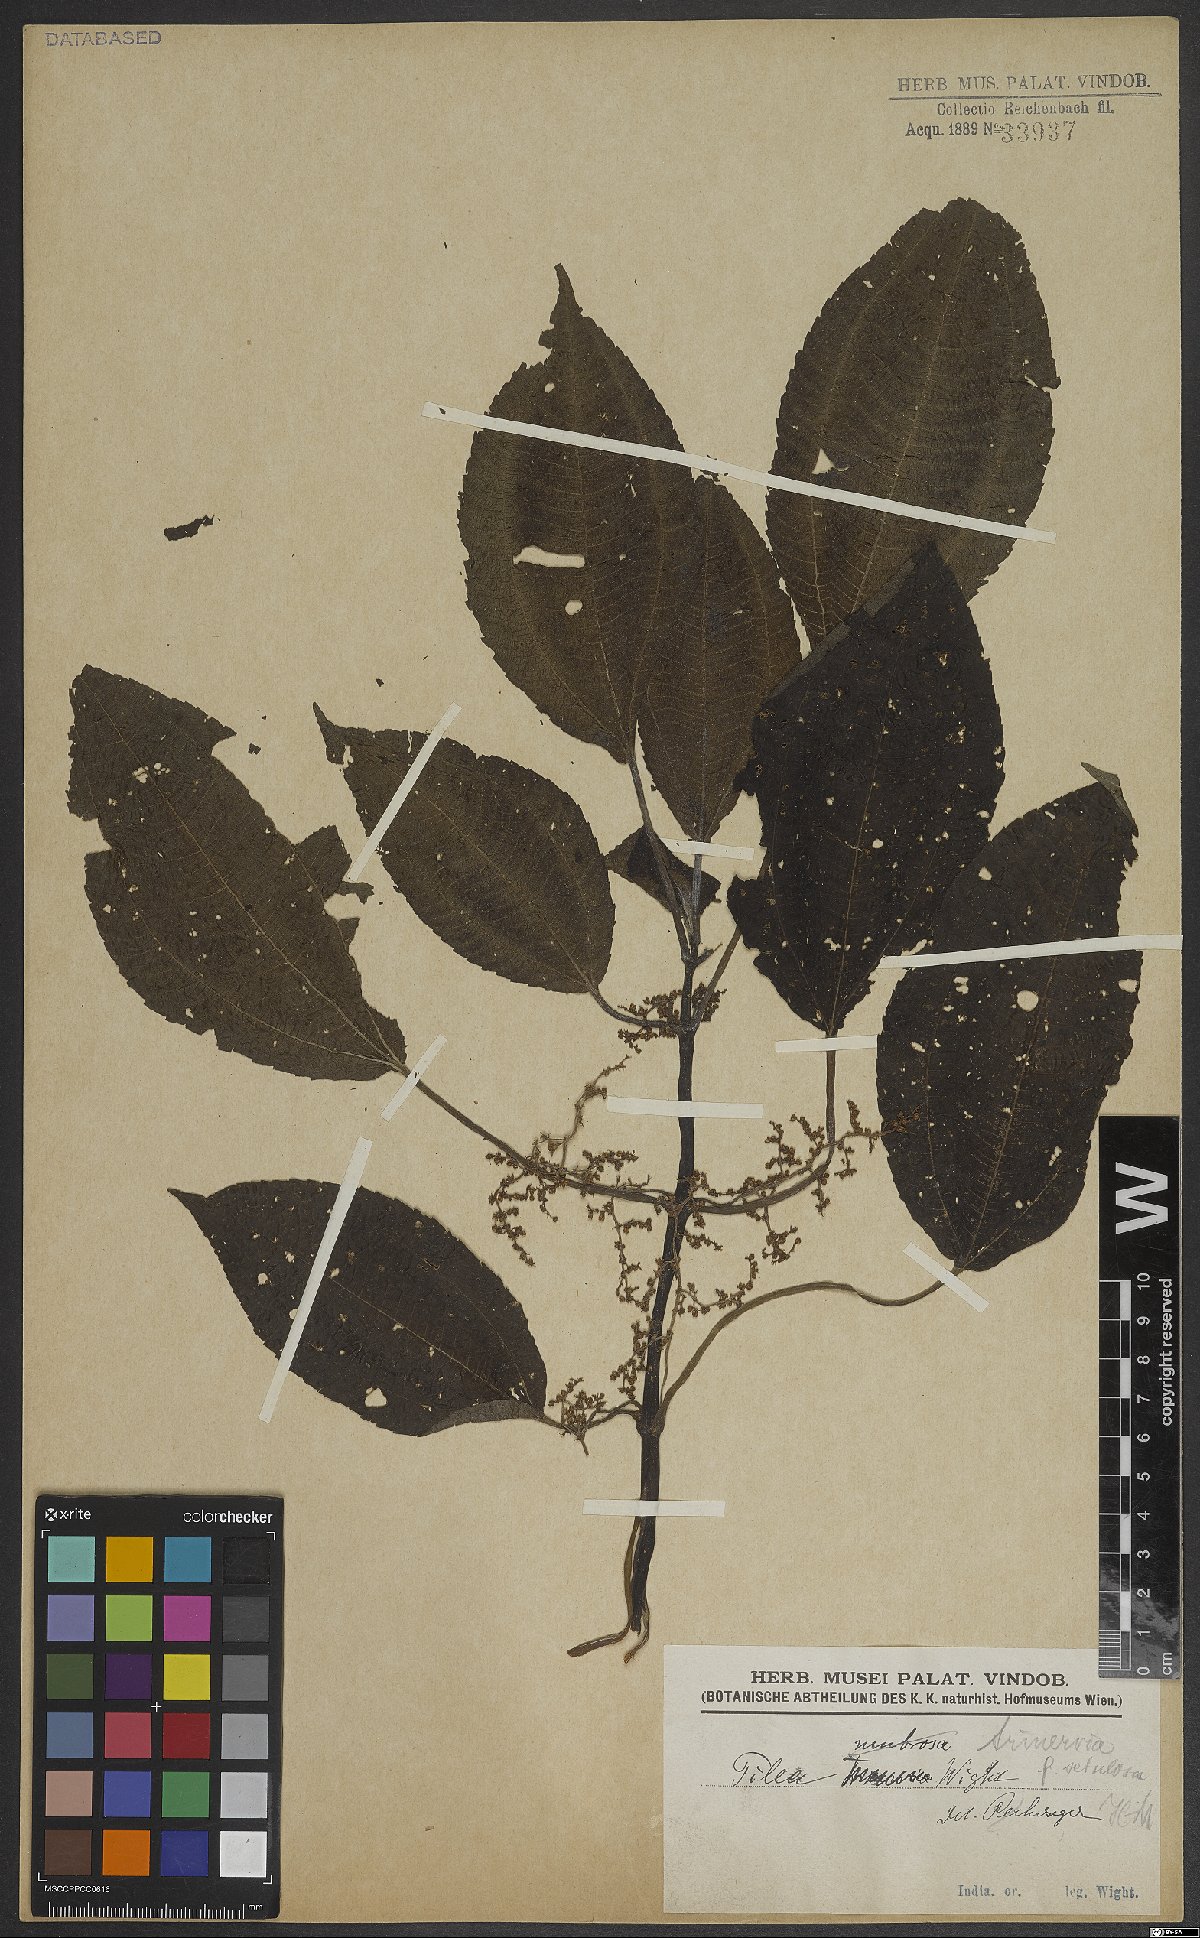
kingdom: Plantae
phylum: Tracheophyta
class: Magnoliopsida
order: Rosales
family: Urticaceae
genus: Pilea
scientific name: Pilea melastomoides
